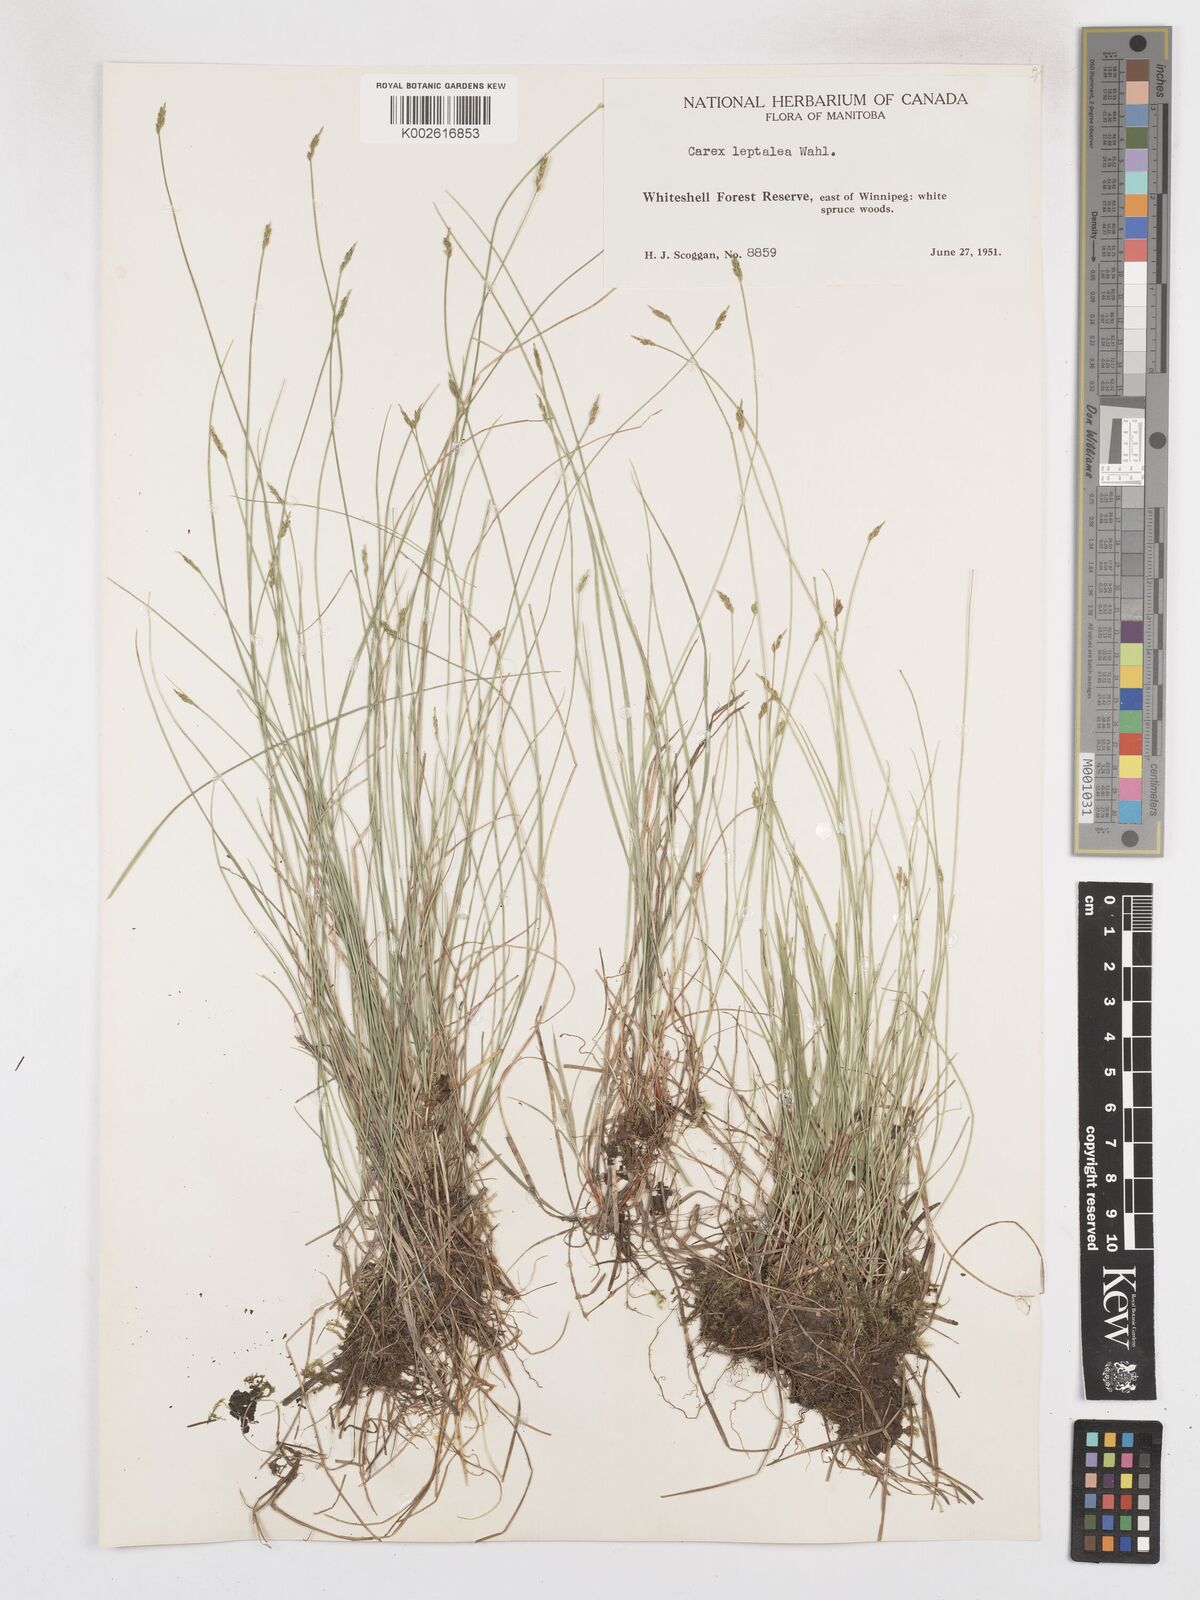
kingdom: Plantae
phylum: Tracheophyta
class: Liliopsida
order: Poales
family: Cyperaceae
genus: Carex
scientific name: Carex leptalea
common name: Bristly-stalked sedge
